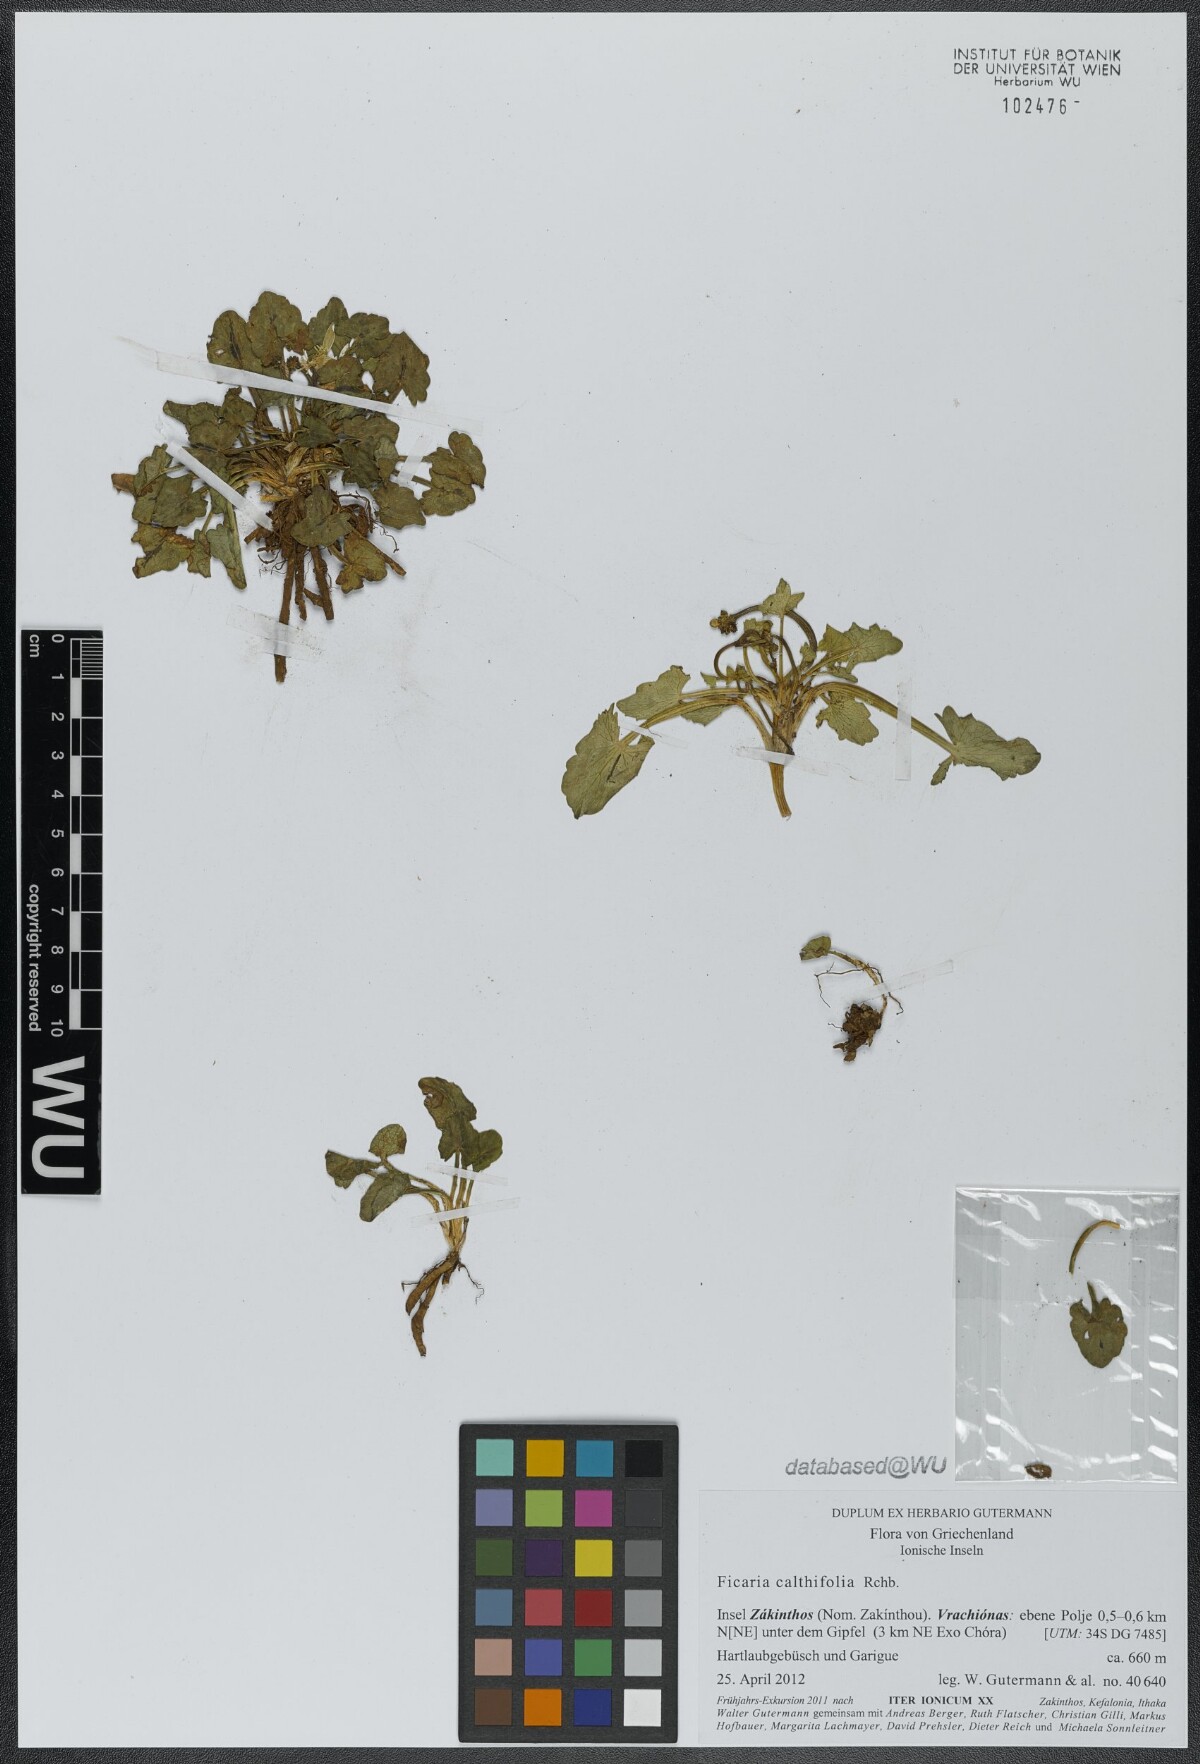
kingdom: Plantae
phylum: Tracheophyta
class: Magnoliopsida
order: Ranunculales
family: Ranunculaceae
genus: Ficaria
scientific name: Ficaria calthifolia
